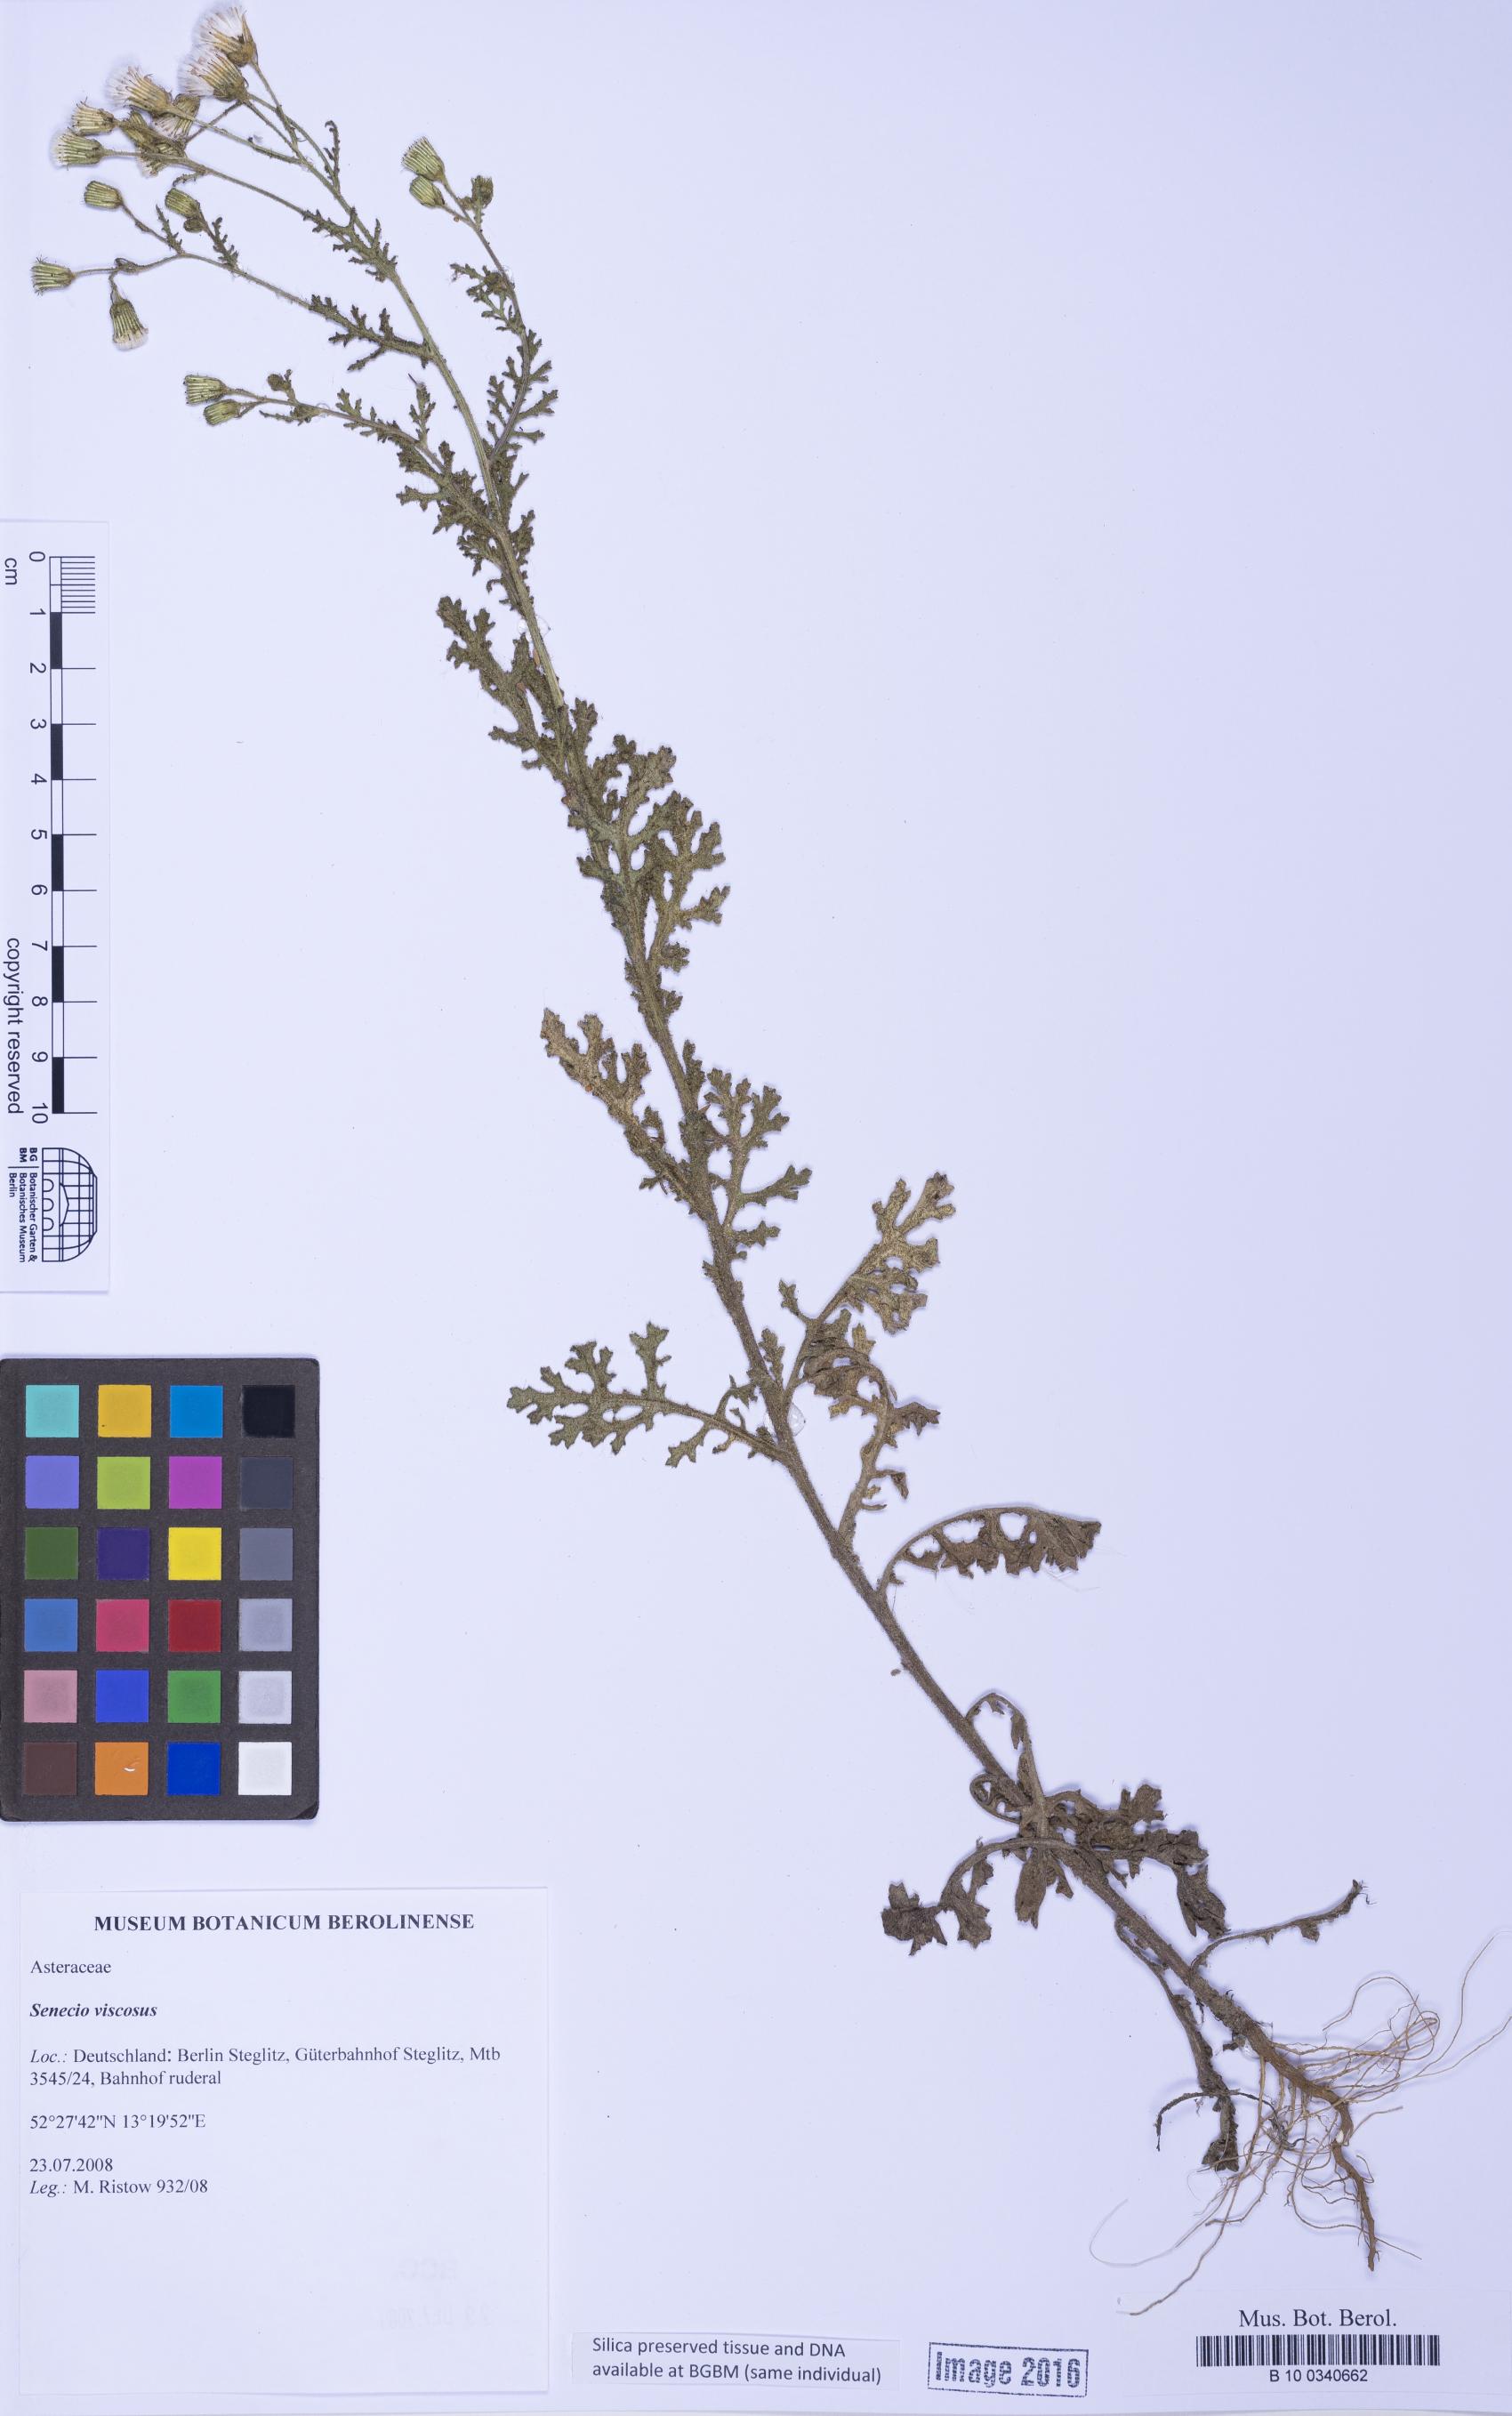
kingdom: Plantae
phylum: Tracheophyta
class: Magnoliopsida
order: Asterales
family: Asteraceae
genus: Senecio
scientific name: Senecio viscosus
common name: Sticky groundsel
